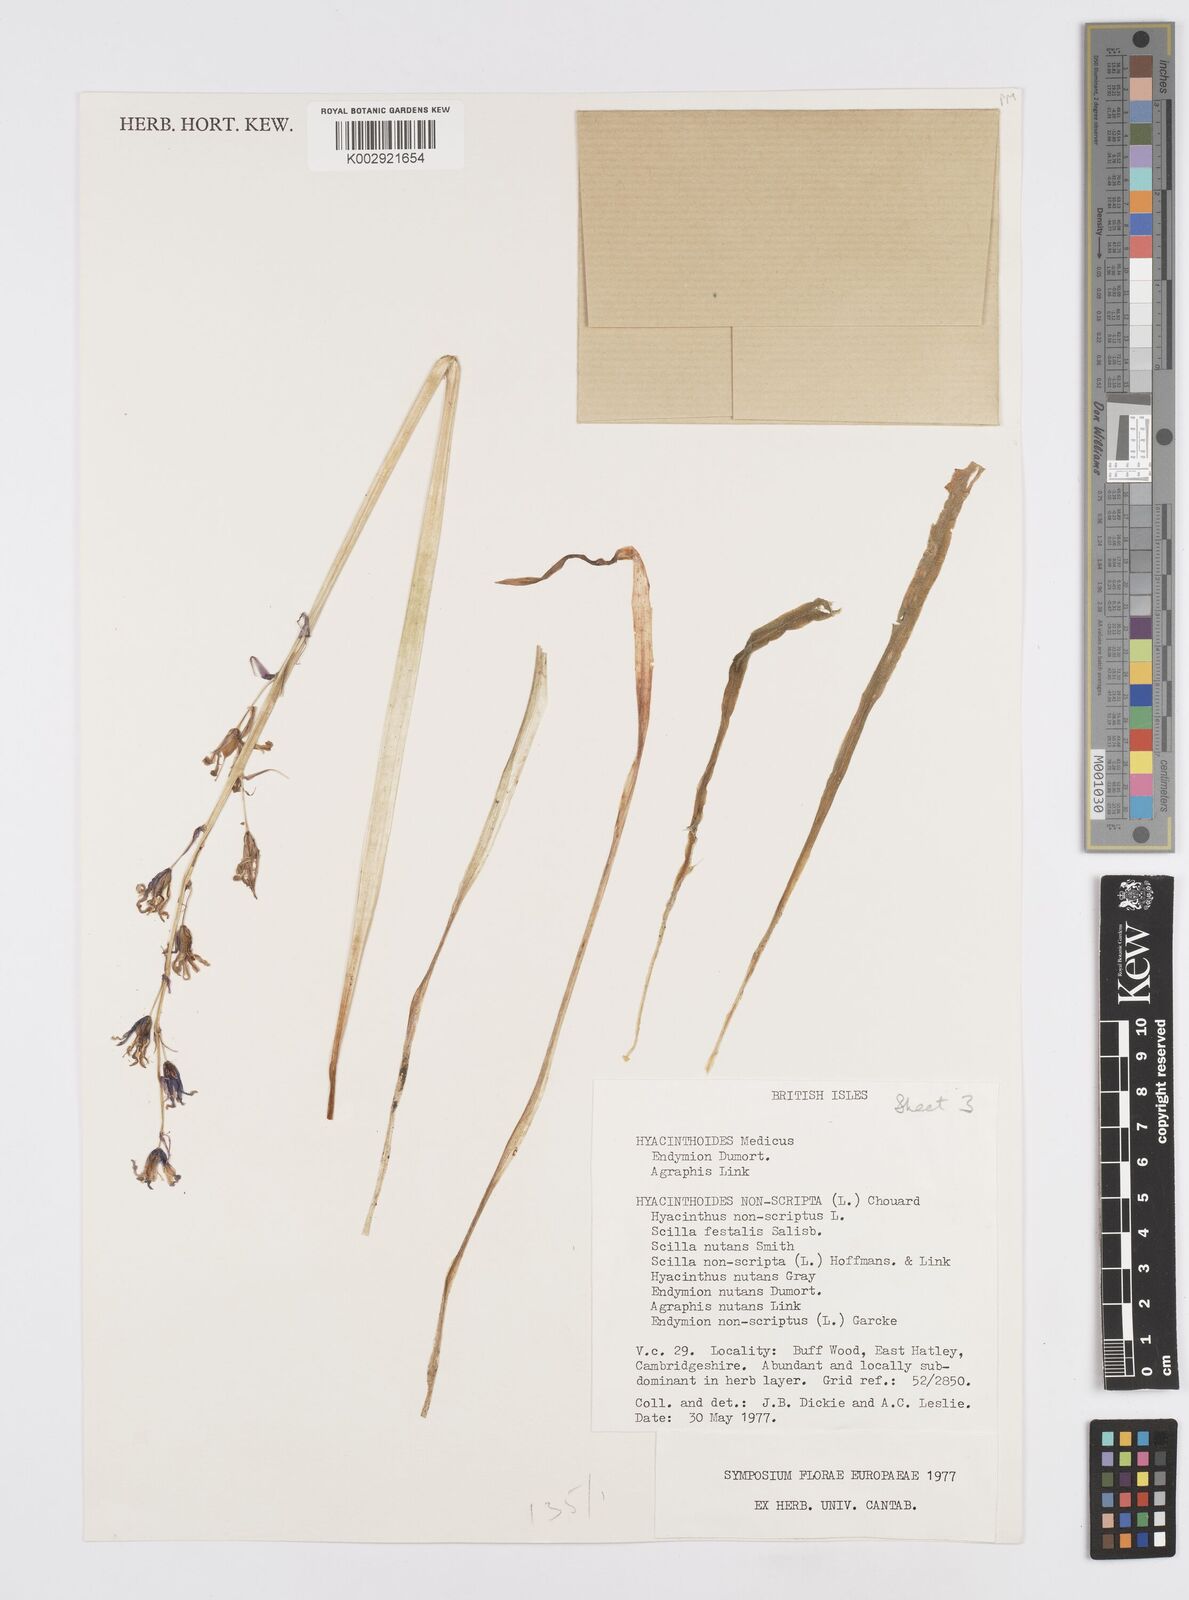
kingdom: Plantae
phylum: Tracheophyta
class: Liliopsida
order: Asparagales
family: Asparagaceae
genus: Hyacinthoides
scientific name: Hyacinthoides non-scripta
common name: Bluebell
